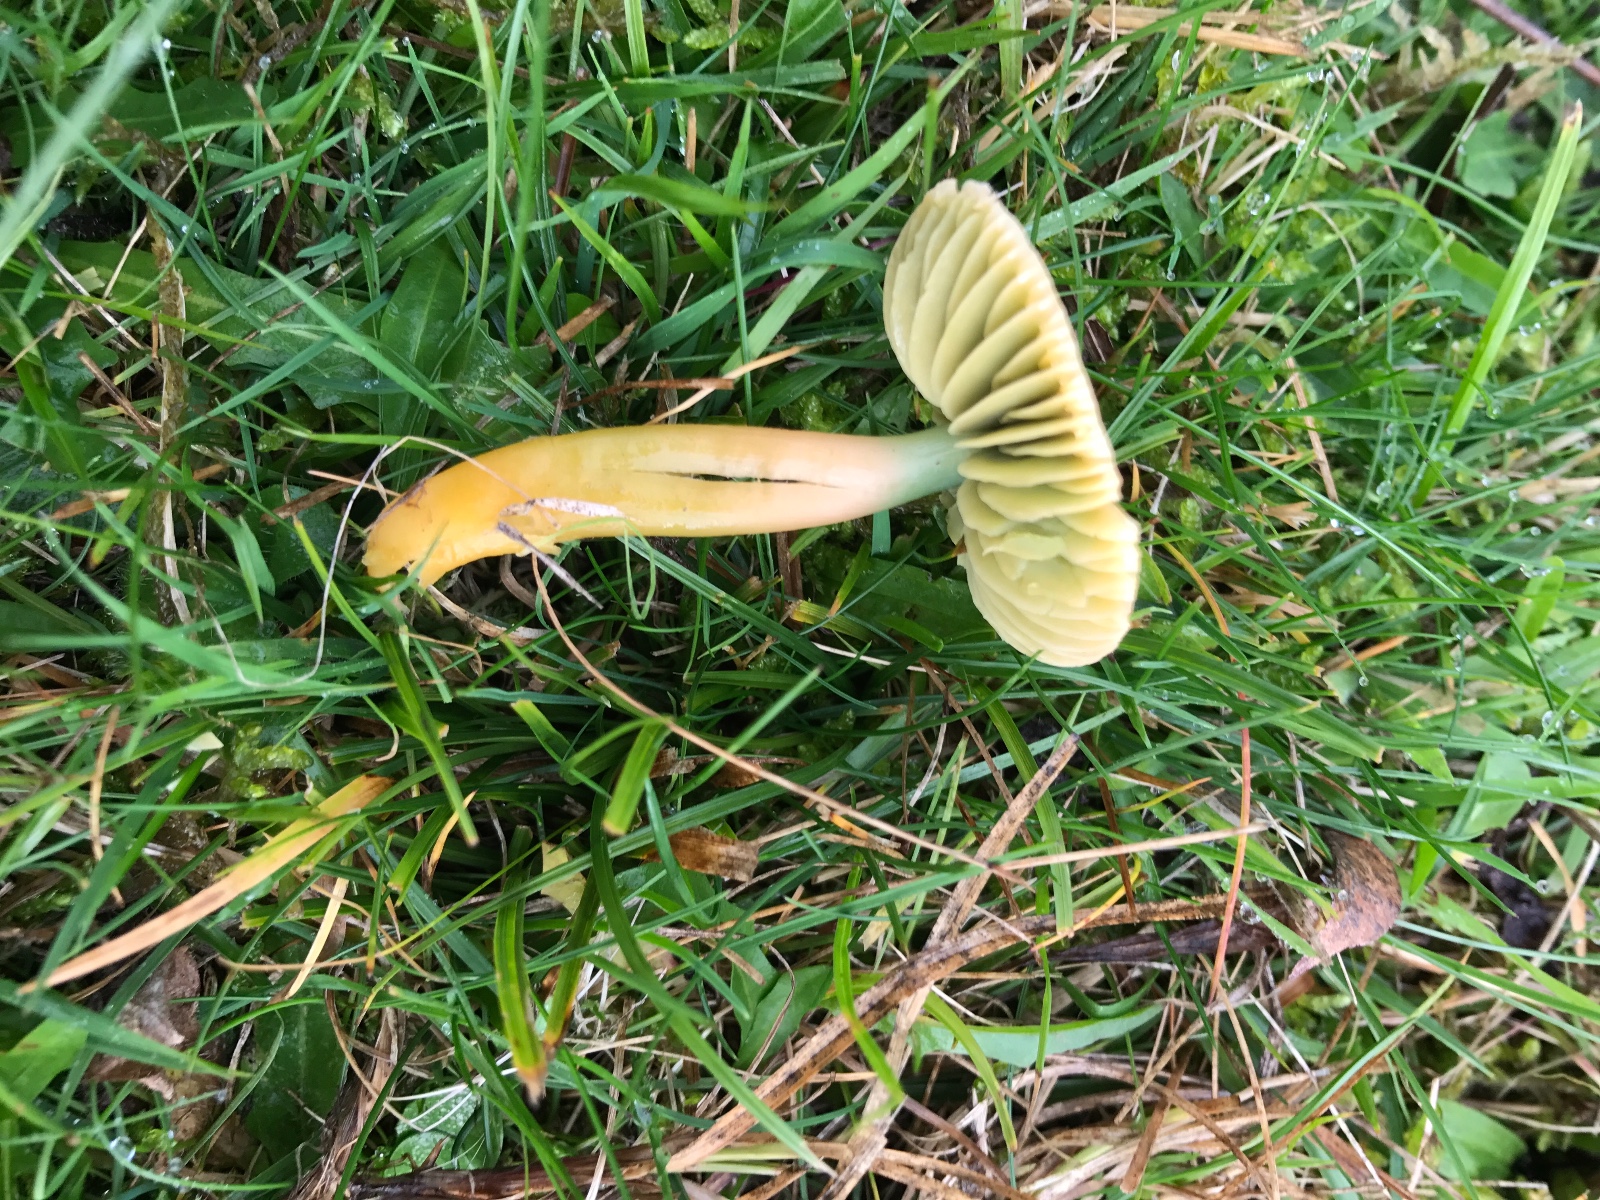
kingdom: Fungi
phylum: Basidiomycota
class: Agaricomycetes
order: Agaricales
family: Hygrophoraceae
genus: Gliophorus
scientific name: Gliophorus psittacinus
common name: papegøje-vokshat
